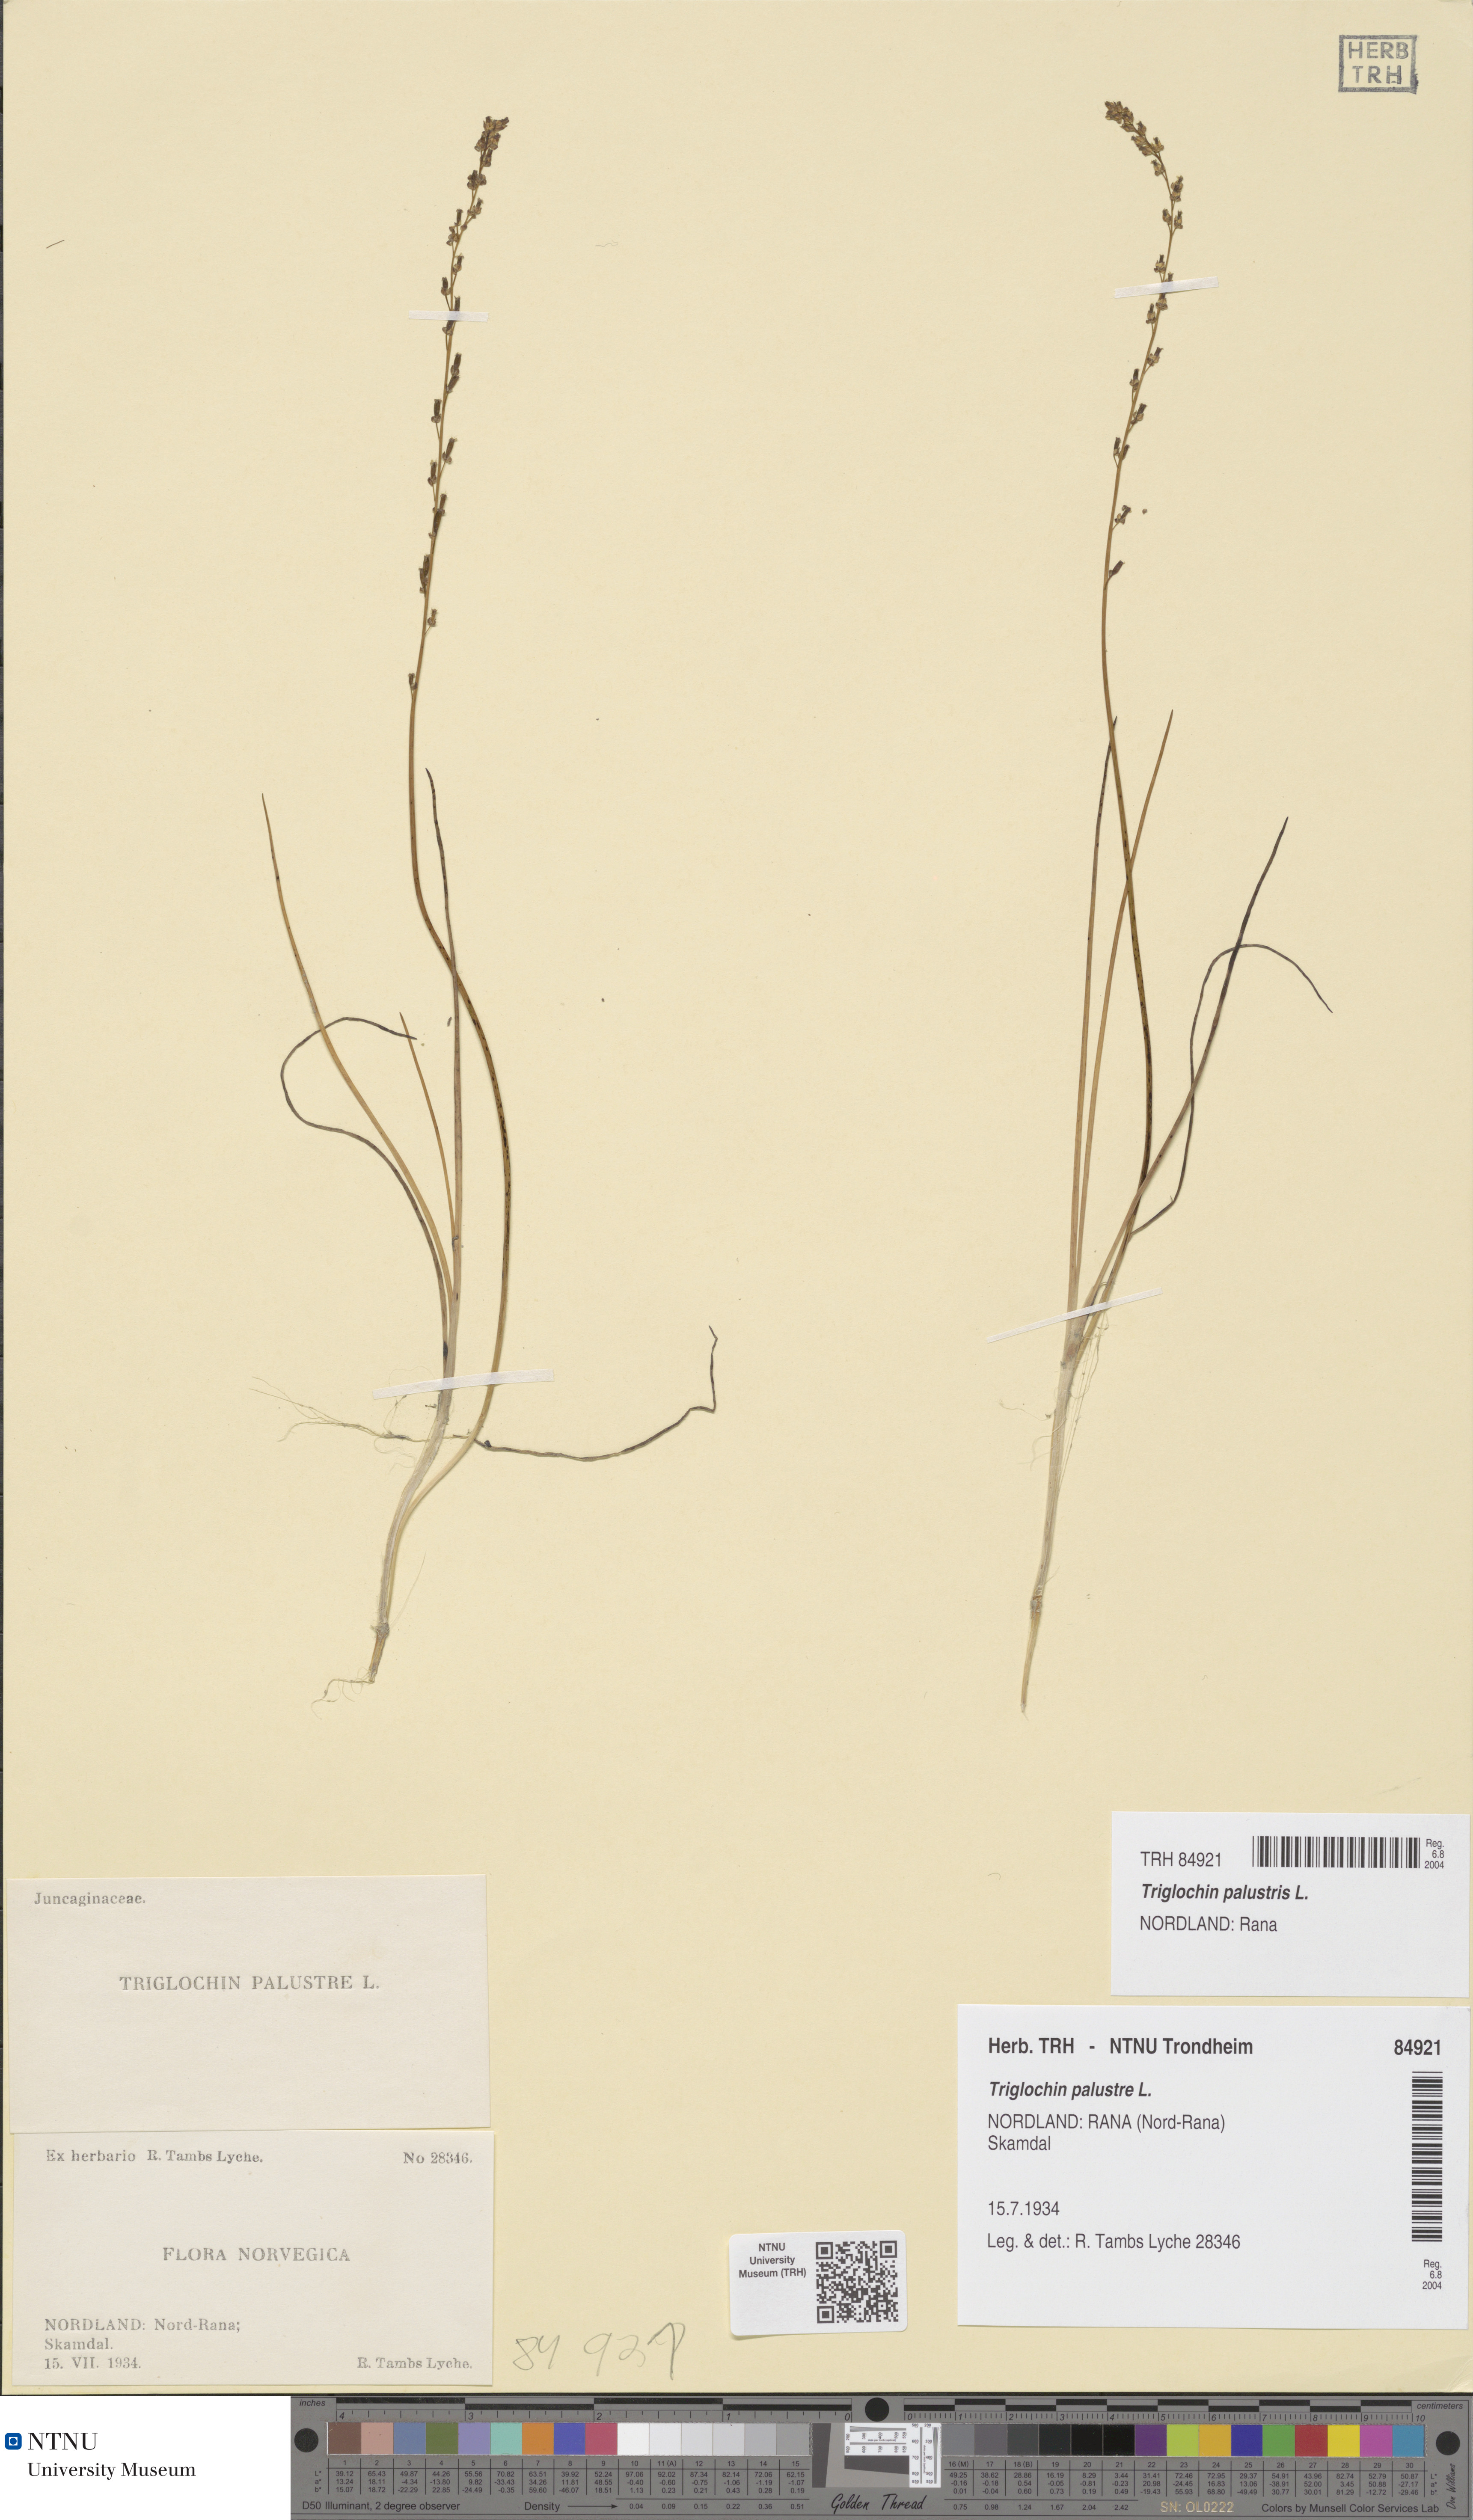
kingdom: Plantae
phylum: Tracheophyta
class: Liliopsida
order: Alismatales
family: Juncaginaceae
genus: Triglochin
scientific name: Triglochin palustris
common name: Marsh arrowgrass
